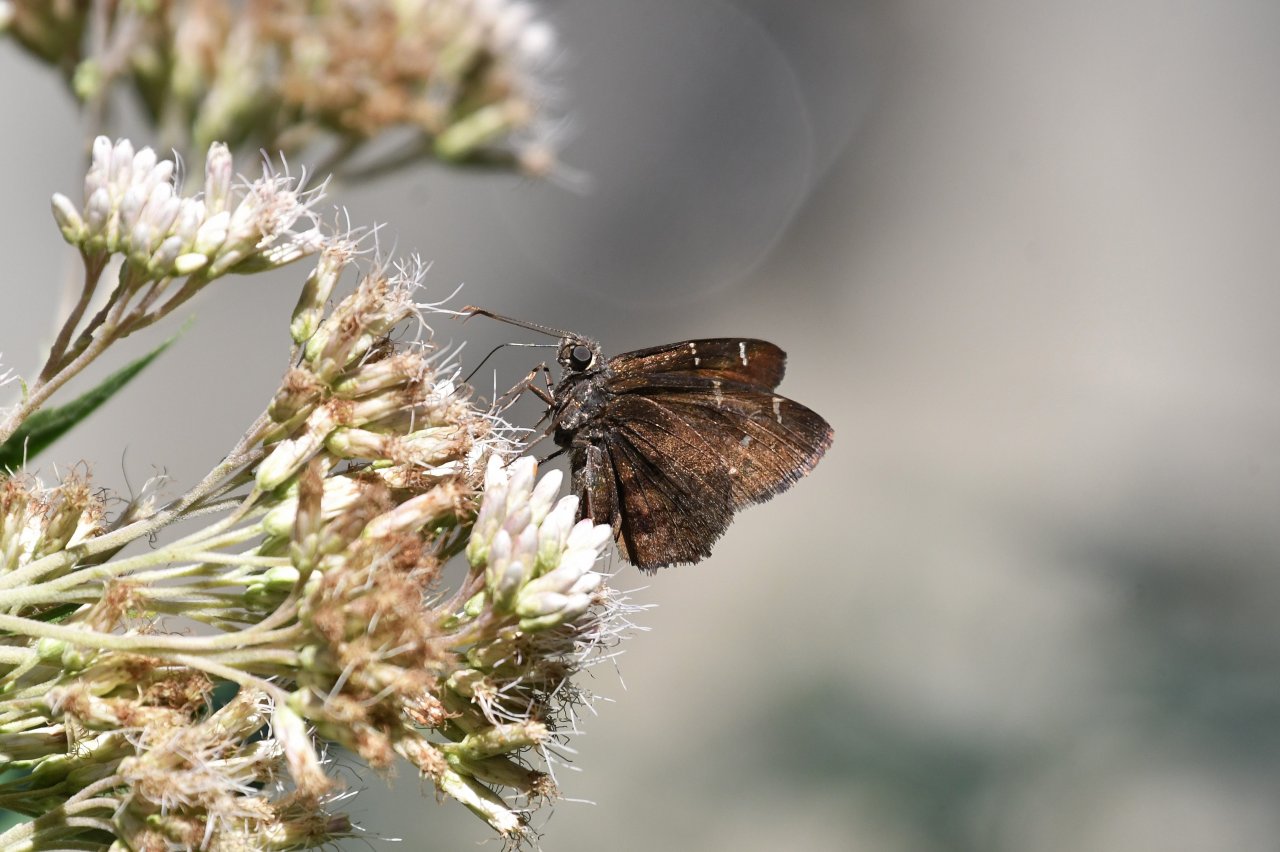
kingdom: Animalia
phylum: Arthropoda
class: Insecta
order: Lepidoptera
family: Hesperiidae
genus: Autochton
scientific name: Autochton
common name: Northern Cloudywing
